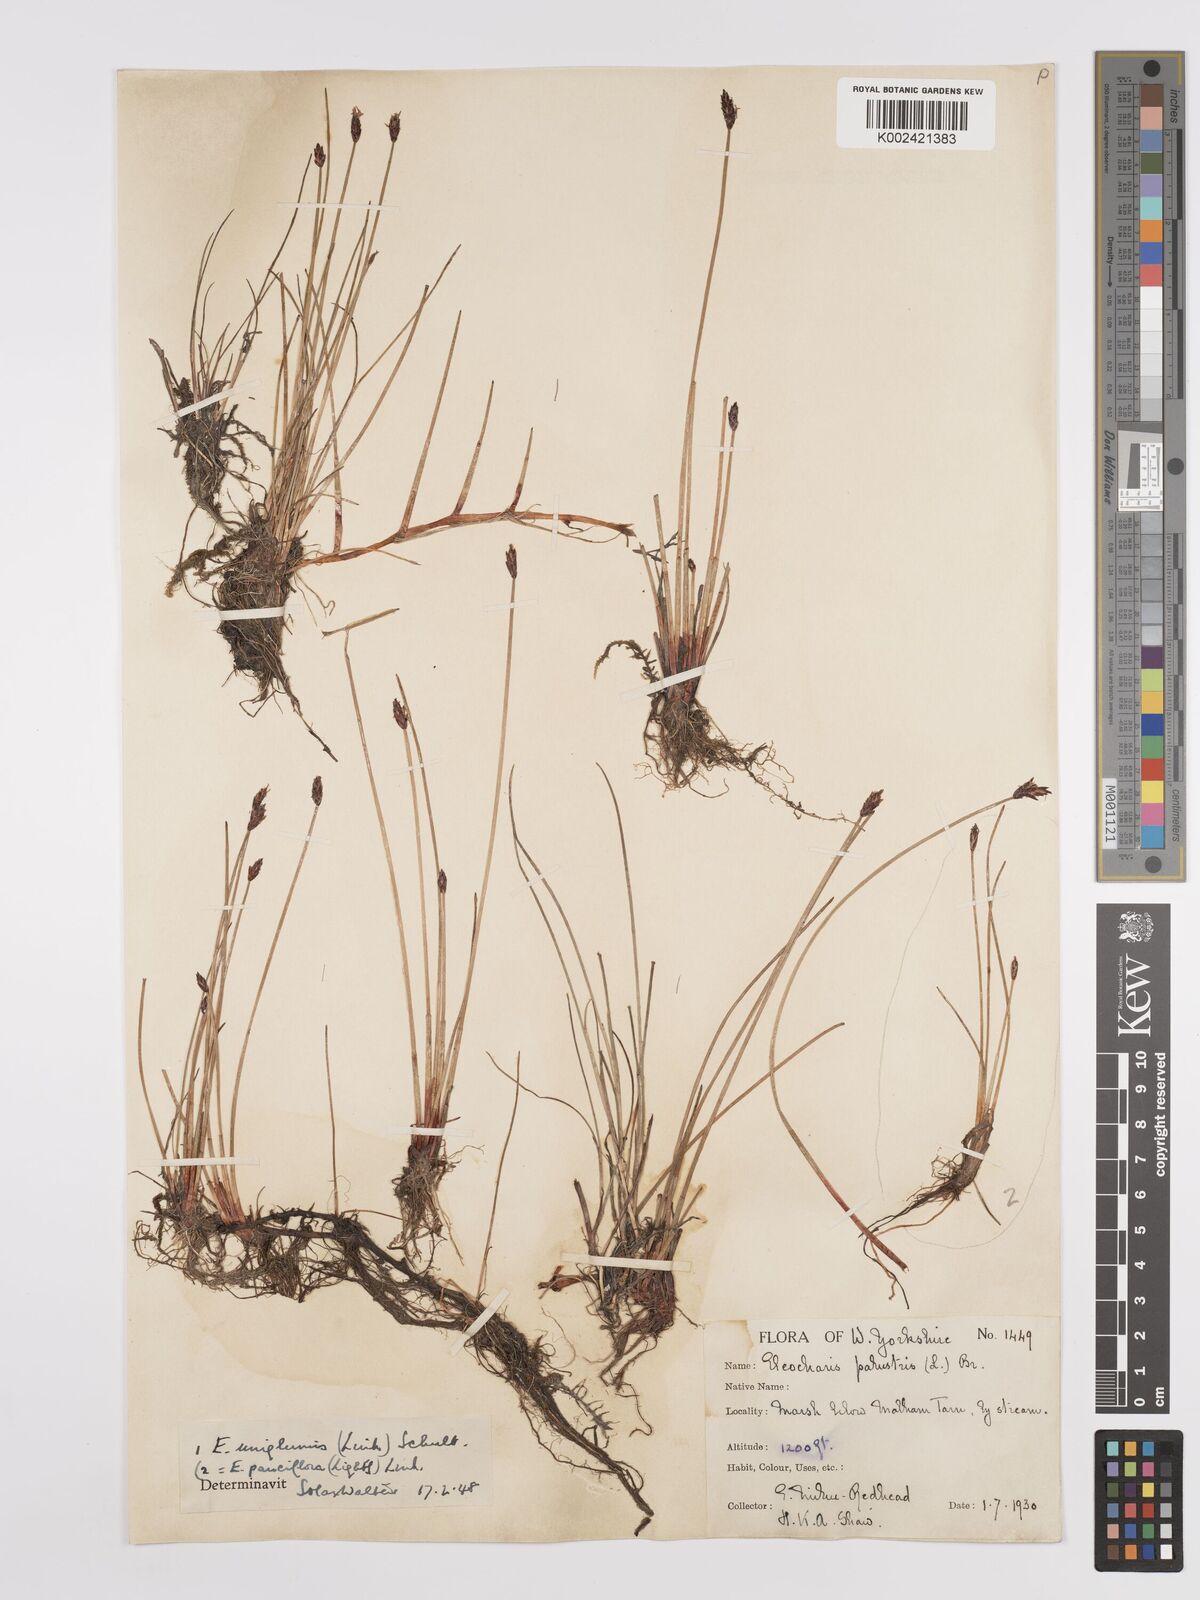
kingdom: Plantae
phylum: Tracheophyta
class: Liliopsida
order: Poales
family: Cyperaceae
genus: Eleocharis
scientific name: Eleocharis uniglumis
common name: Slender spike-rush
